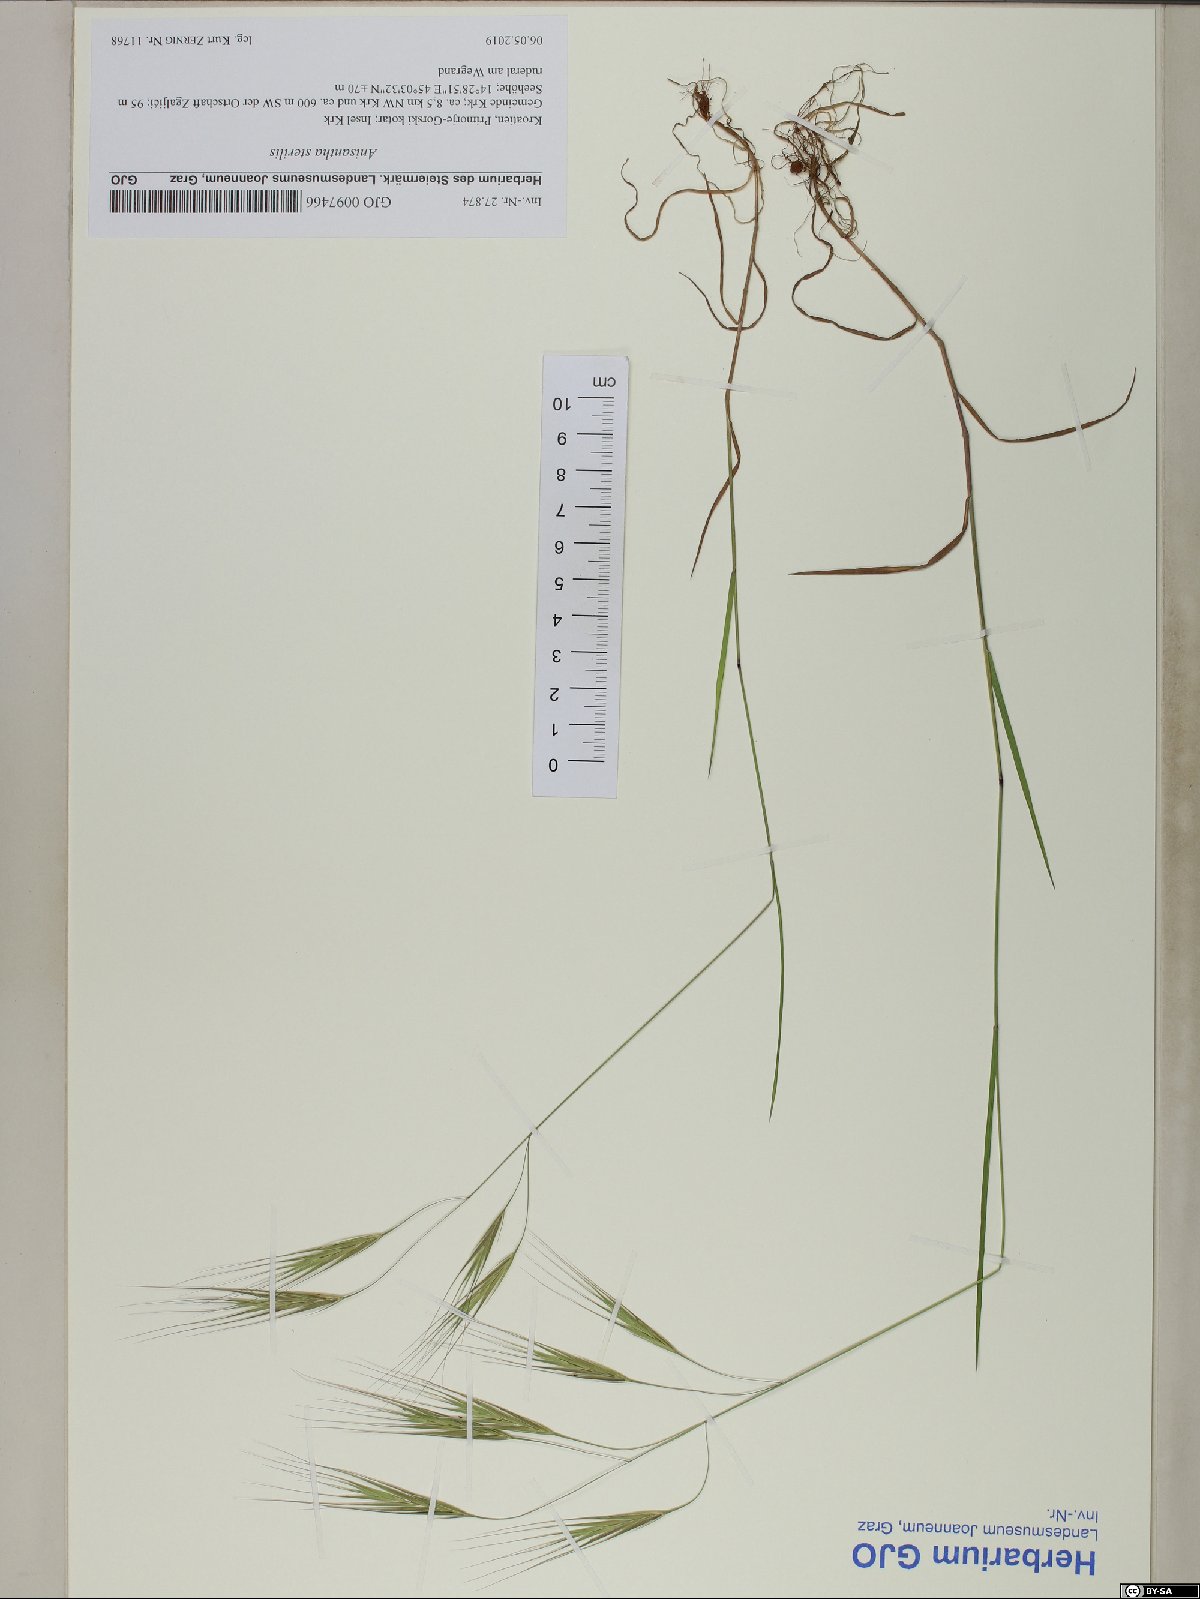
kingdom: Plantae
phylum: Tracheophyta
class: Liliopsida
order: Poales
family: Poaceae
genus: Bromus
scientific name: Bromus sterilis
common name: Poverty brome
